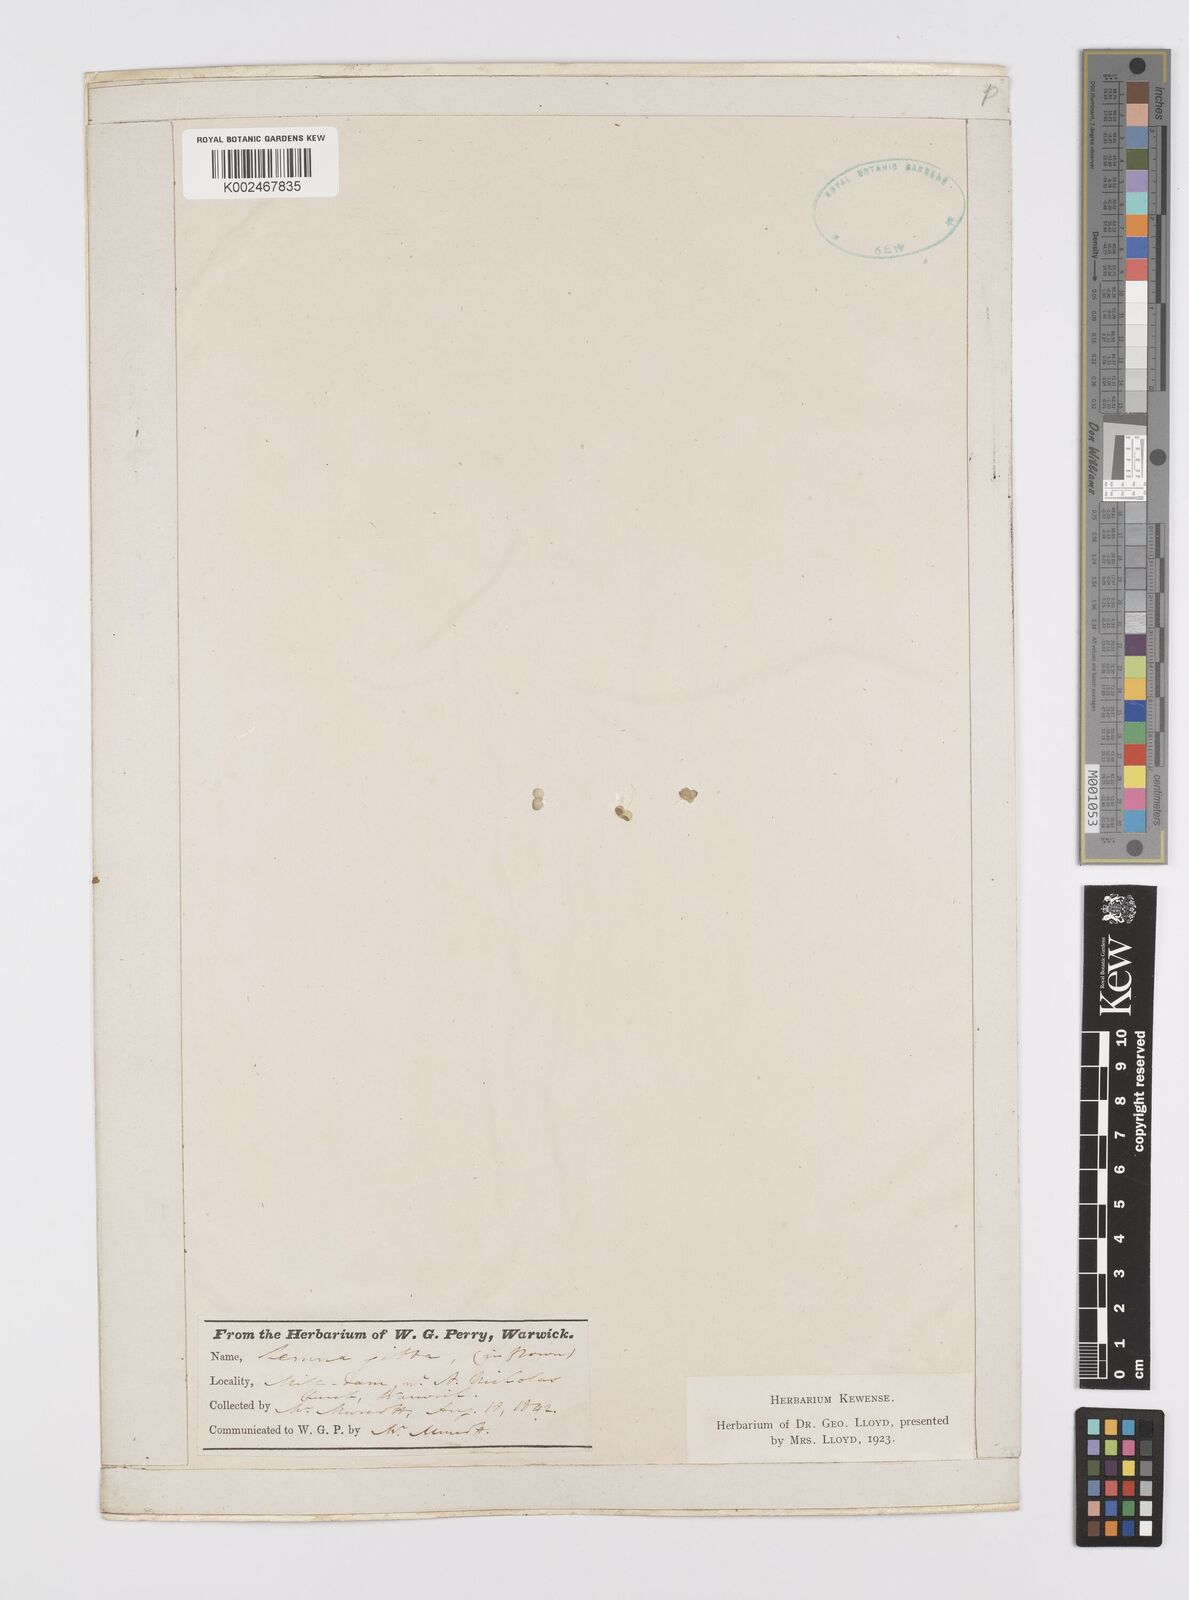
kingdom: Plantae
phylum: Tracheophyta
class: Liliopsida
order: Alismatales
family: Araceae
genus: Lemna
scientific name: Lemna gibba
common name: Fat duckweed
